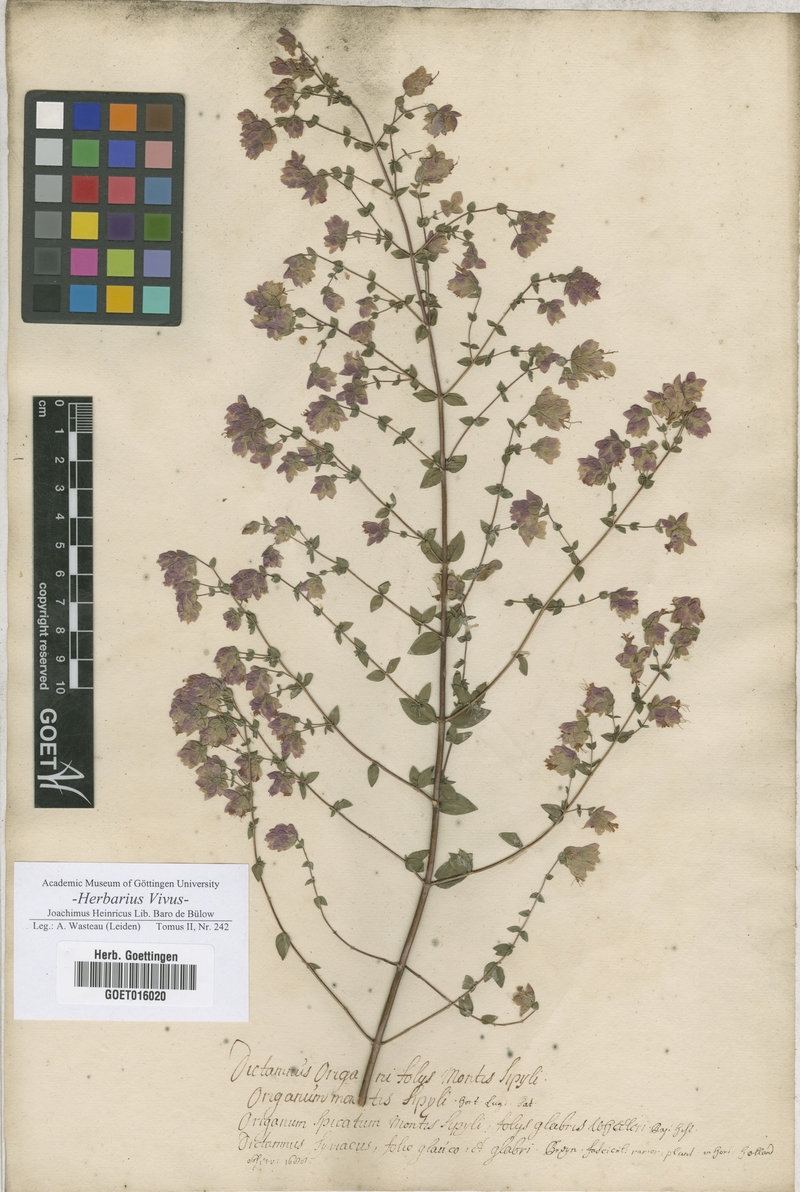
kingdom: Plantae
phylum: Tracheophyta
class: Magnoliopsida
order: Lamiales
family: Lamiaceae
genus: Origanum
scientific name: Origanum sipyleum
